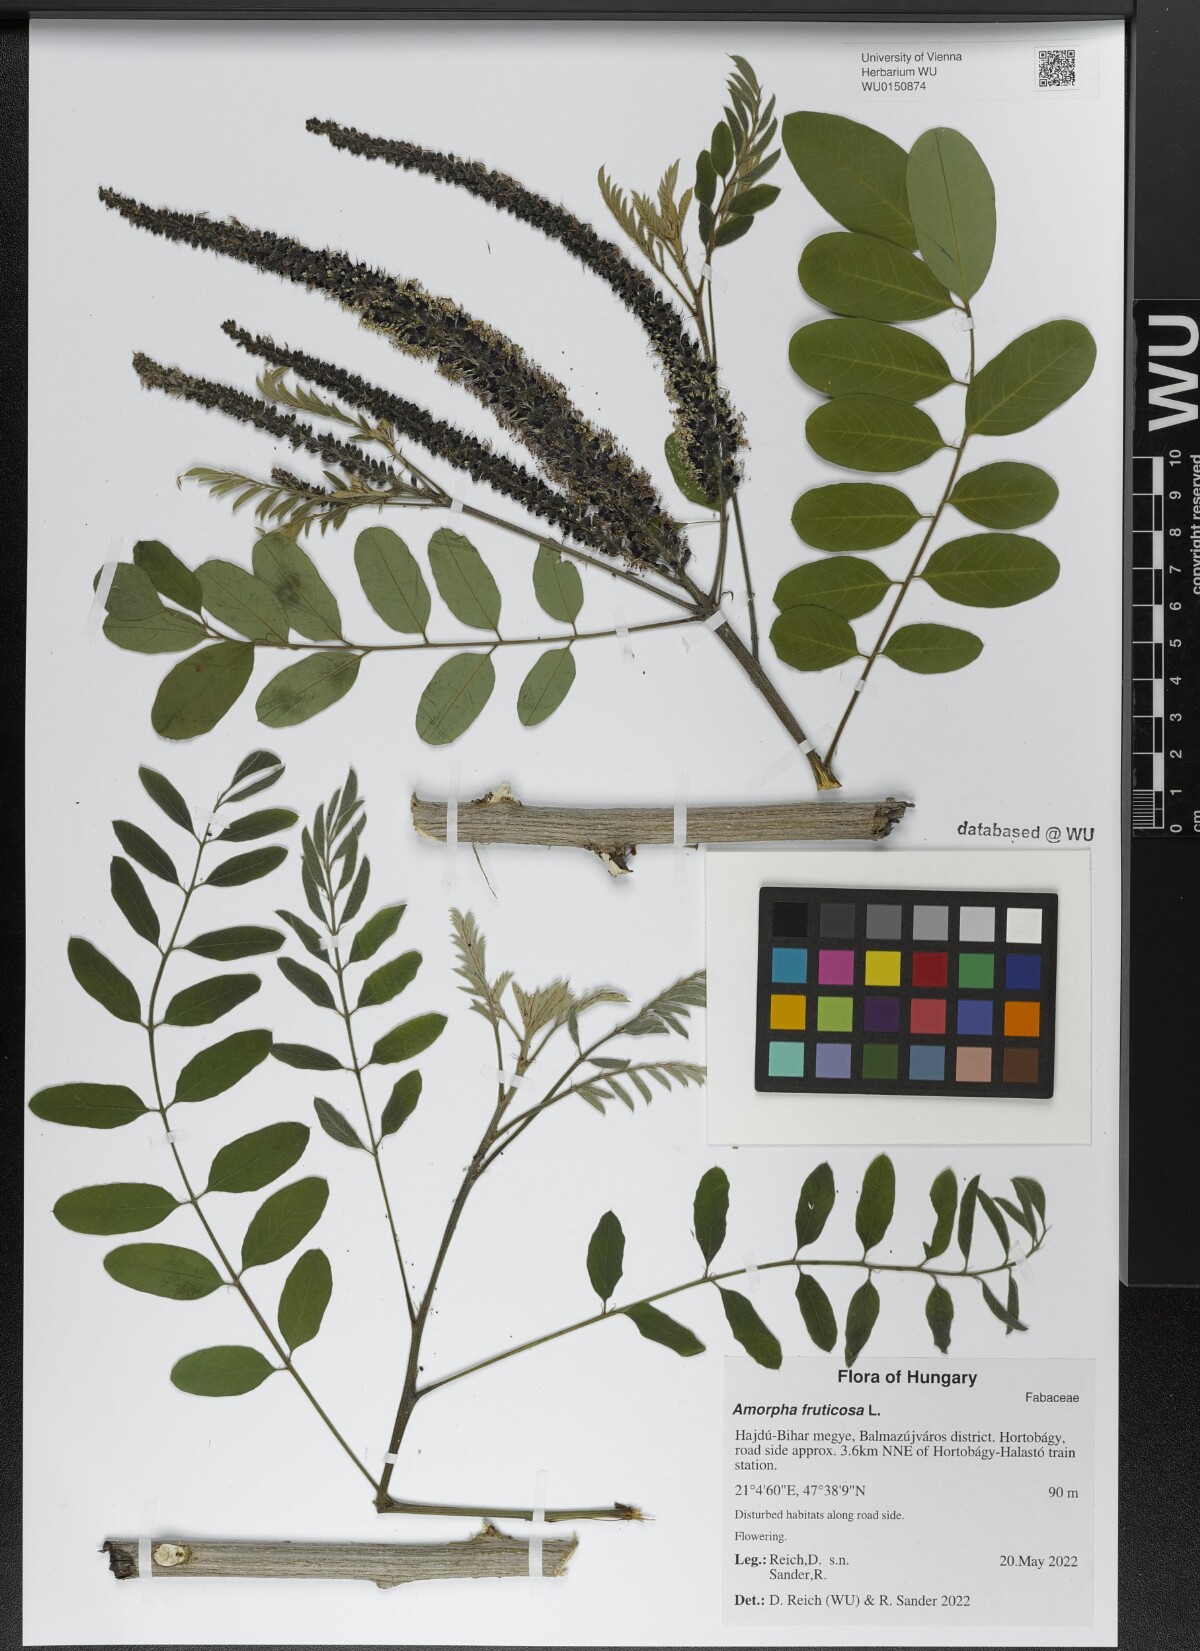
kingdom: Plantae
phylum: Tracheophyta
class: Magnoliopsida
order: Fabales
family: Fabaceae
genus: Amorpha
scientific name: Amorpha fruticosa
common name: False indigo
